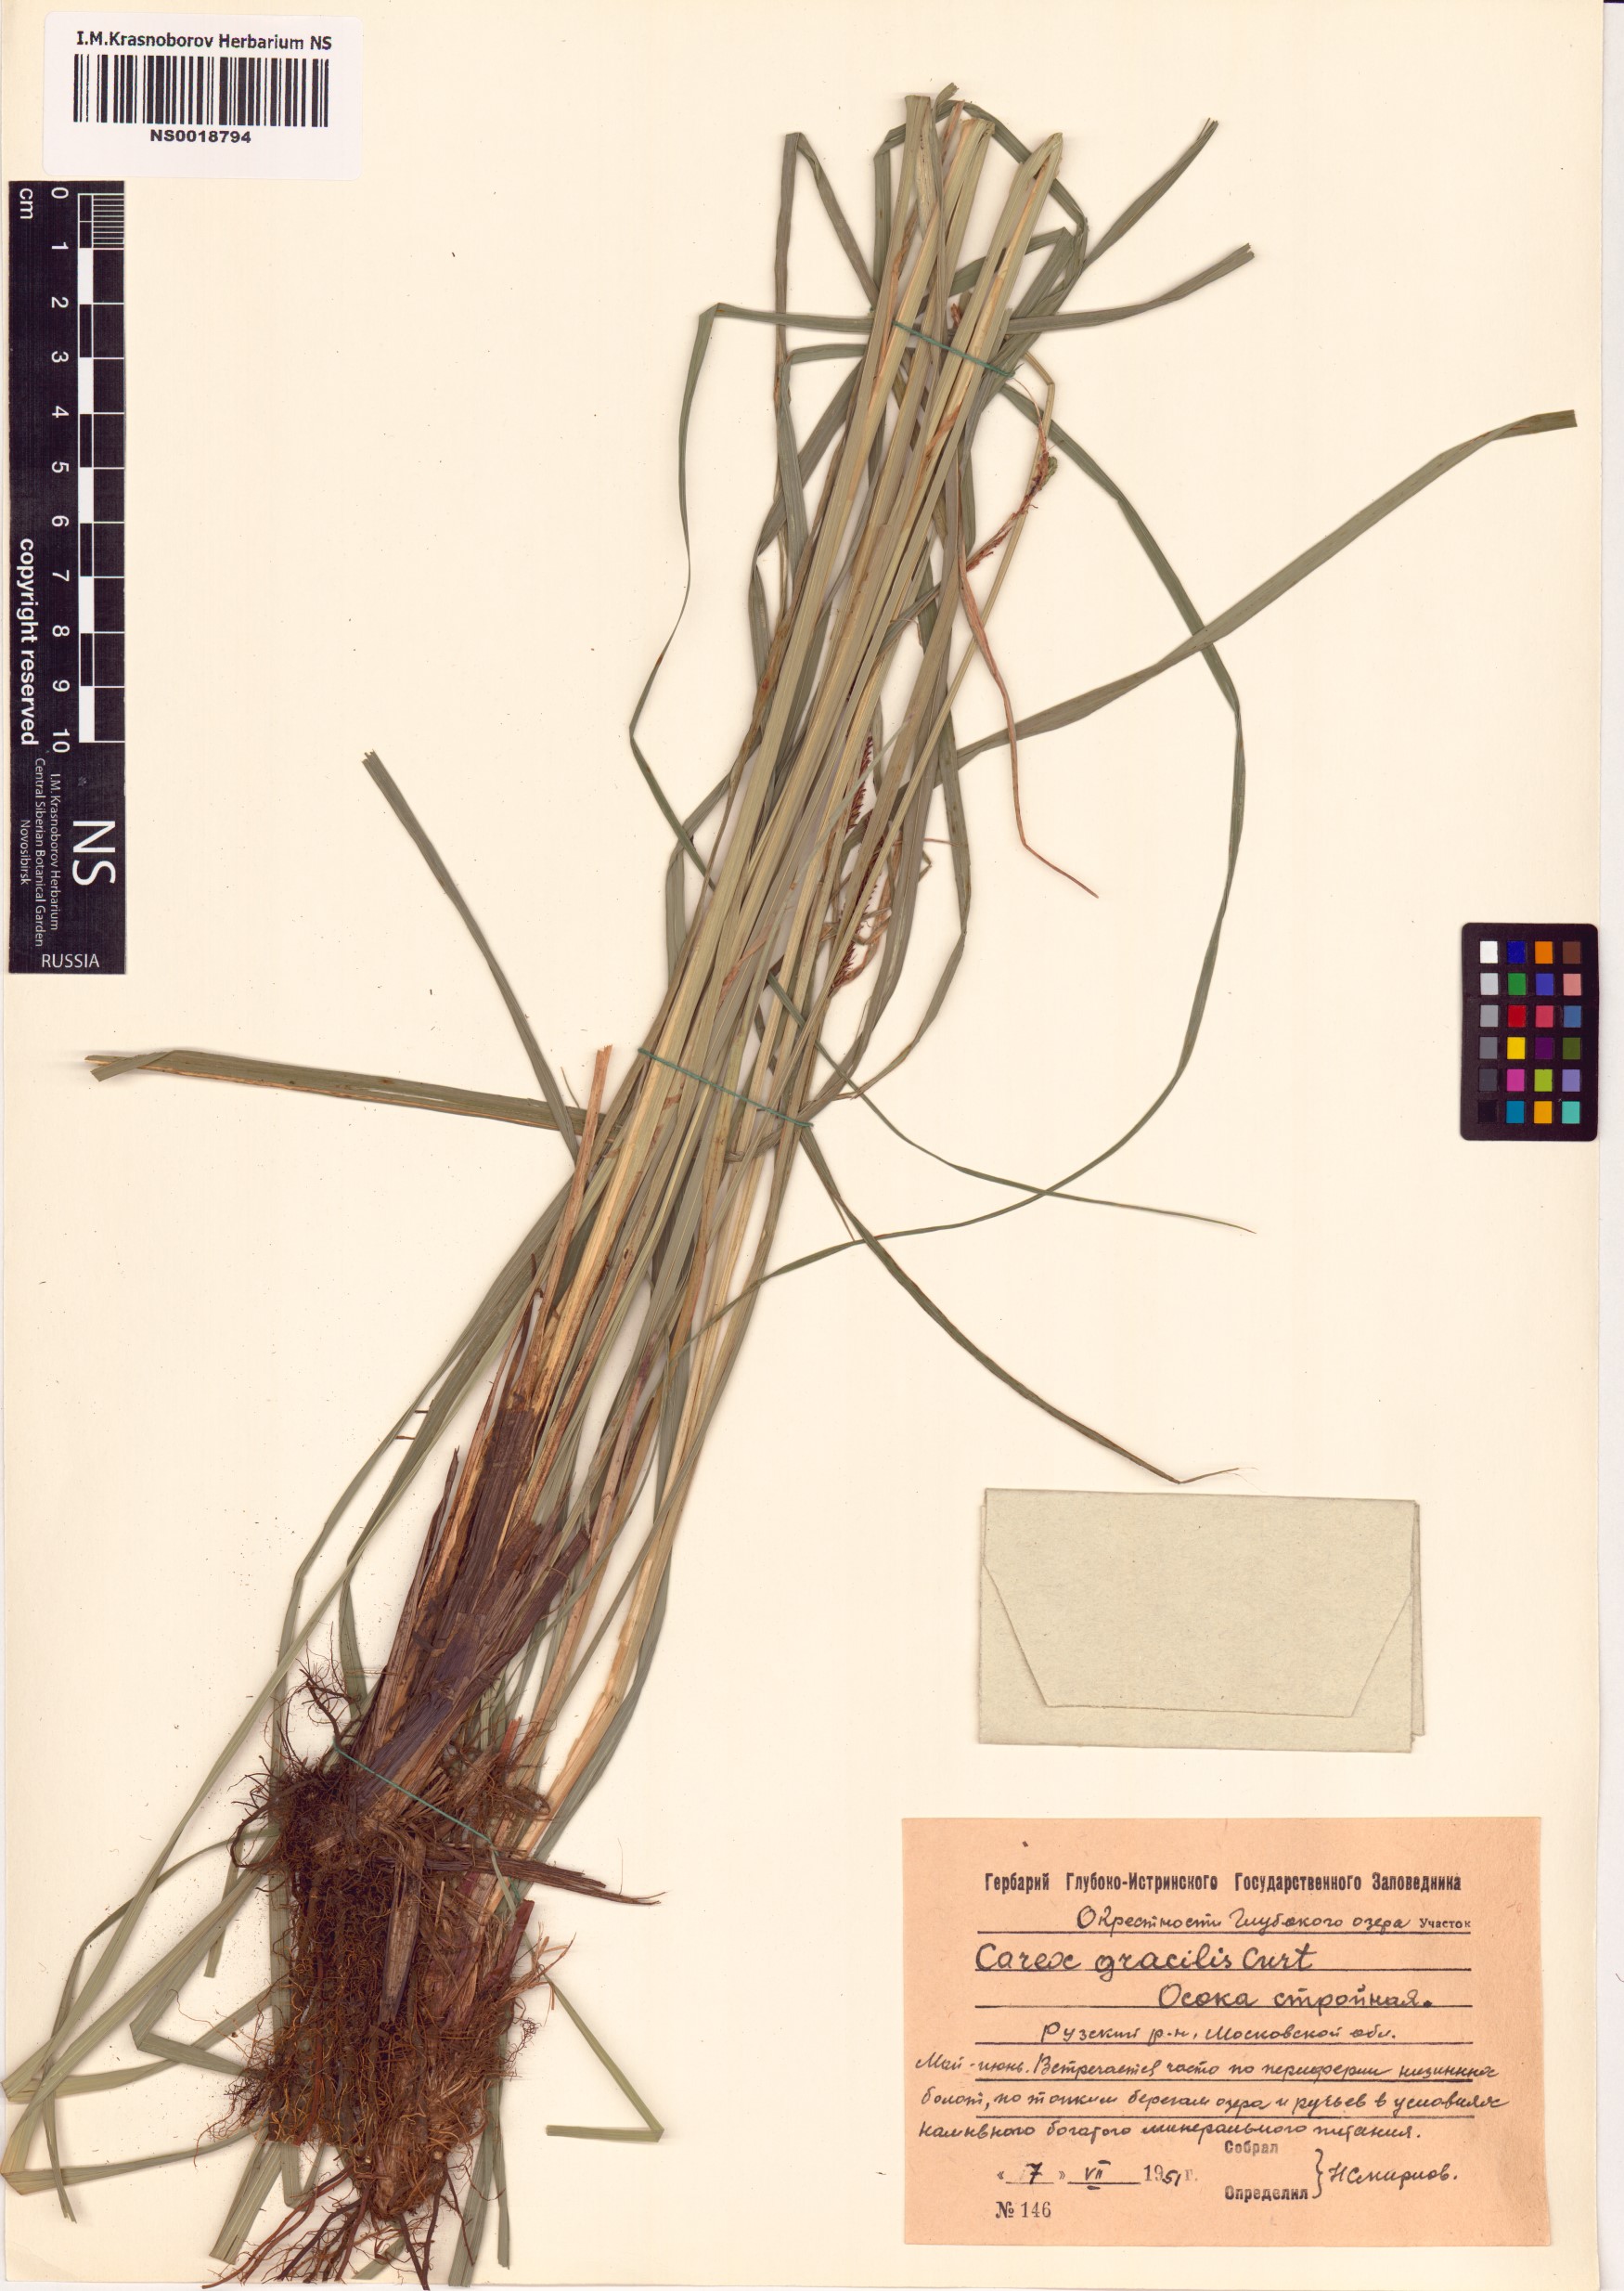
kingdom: Plantae
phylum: Tracheophyta
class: Liliopsida
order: Poales
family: Cyperaceae
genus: Carex
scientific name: Carex acuta
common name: Slender tufted-sedge
